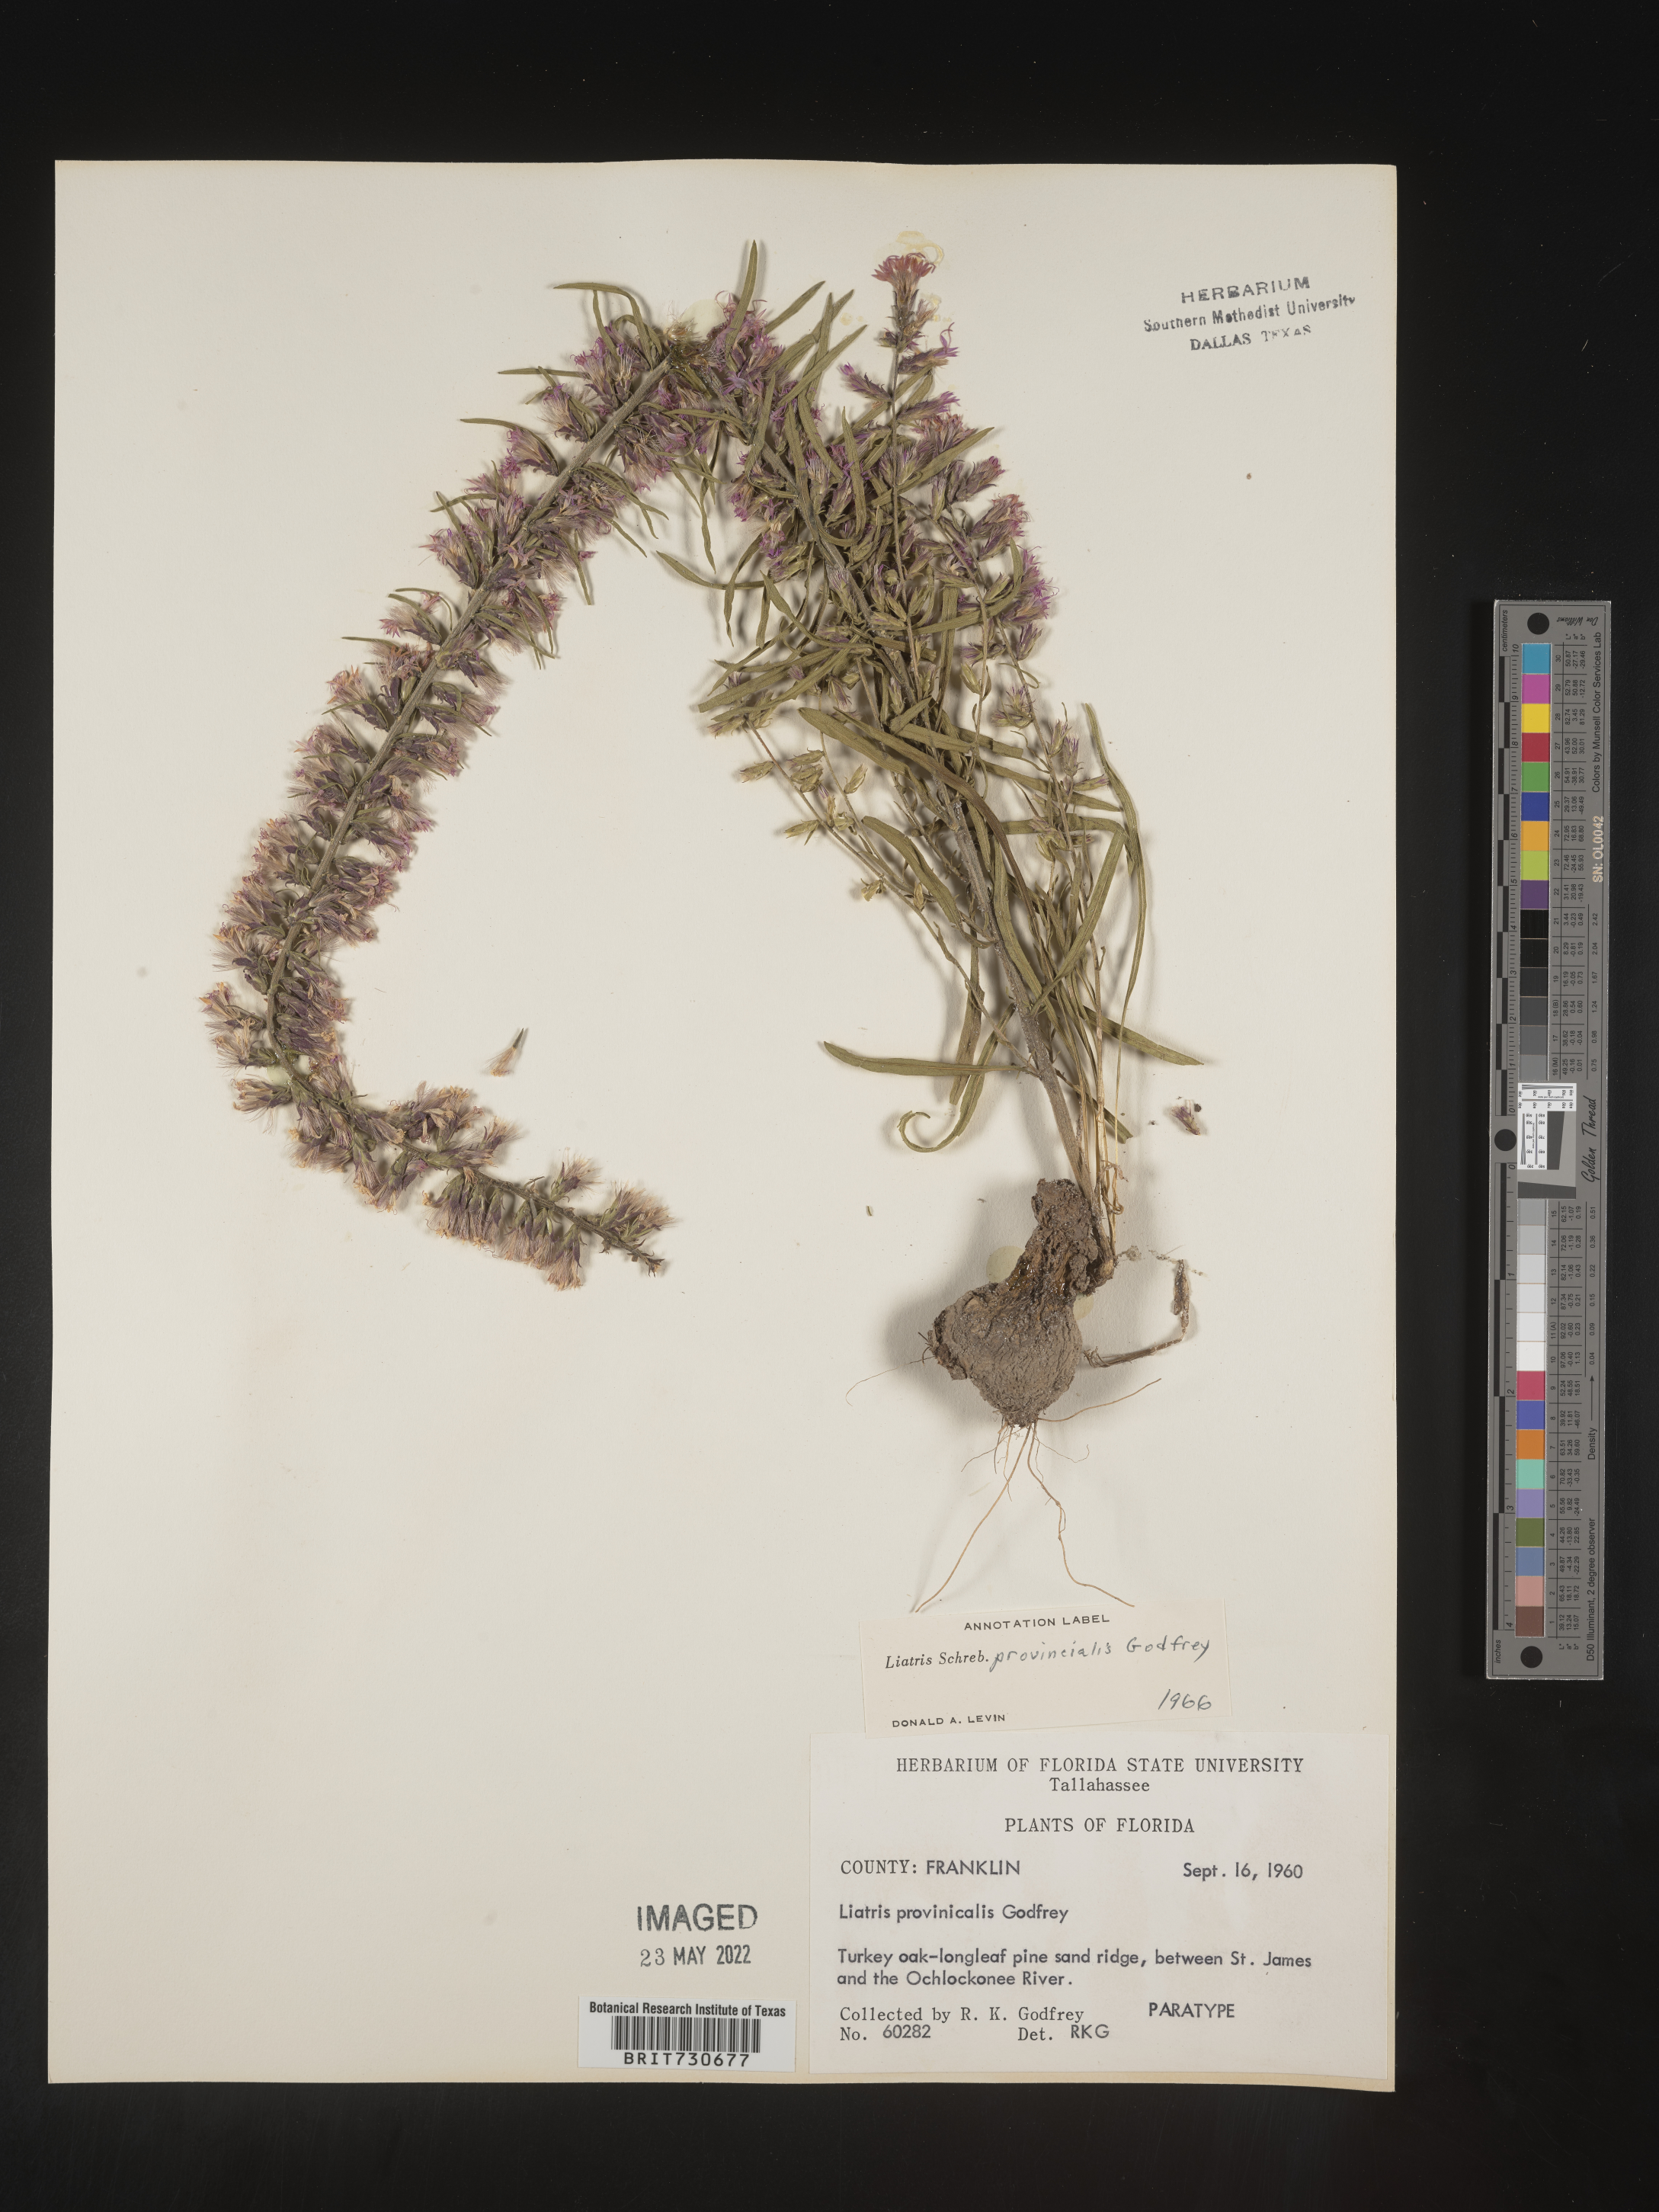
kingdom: Plantae
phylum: Tracheophyta
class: Magnoliopsida
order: Asterales
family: Asteraceae
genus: Liatris
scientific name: Liatris provincialis
